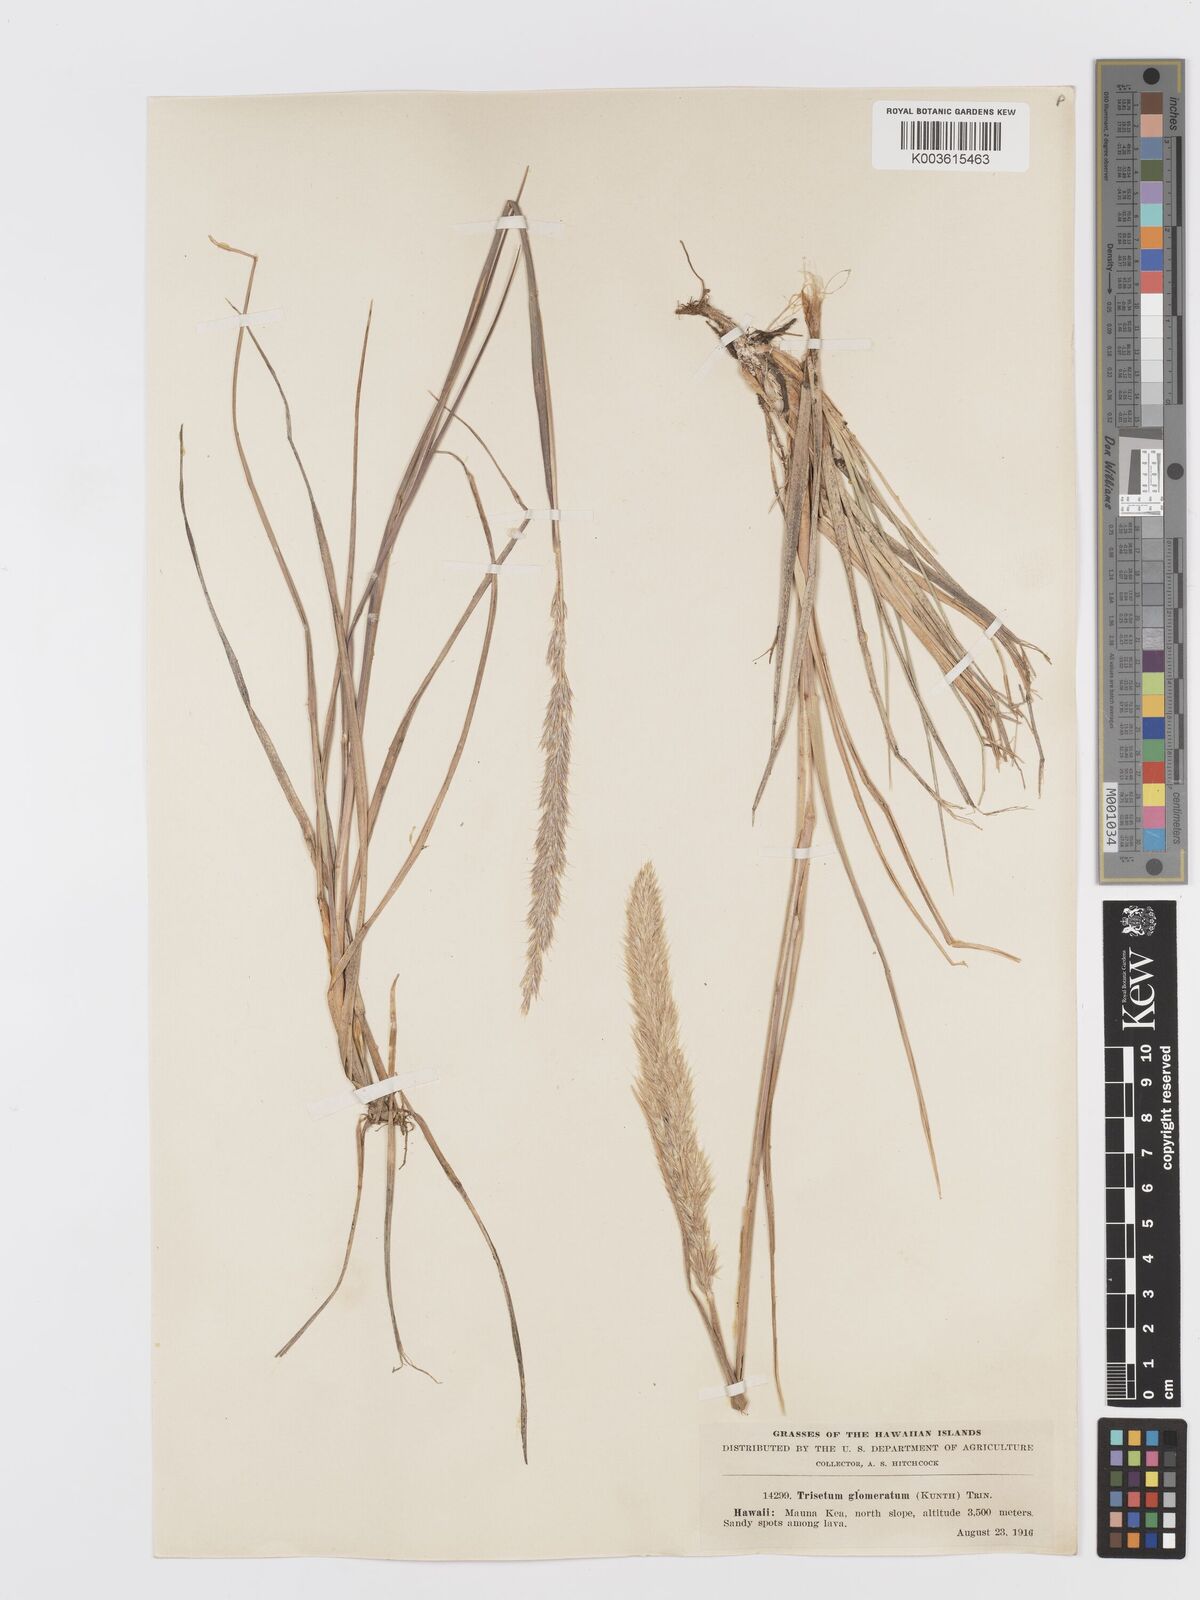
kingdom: Plantae
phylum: Tracheophyta
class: Liliopsida
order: Poales
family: Poaceae
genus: Trisetum
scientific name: Trisetum glomeratum
